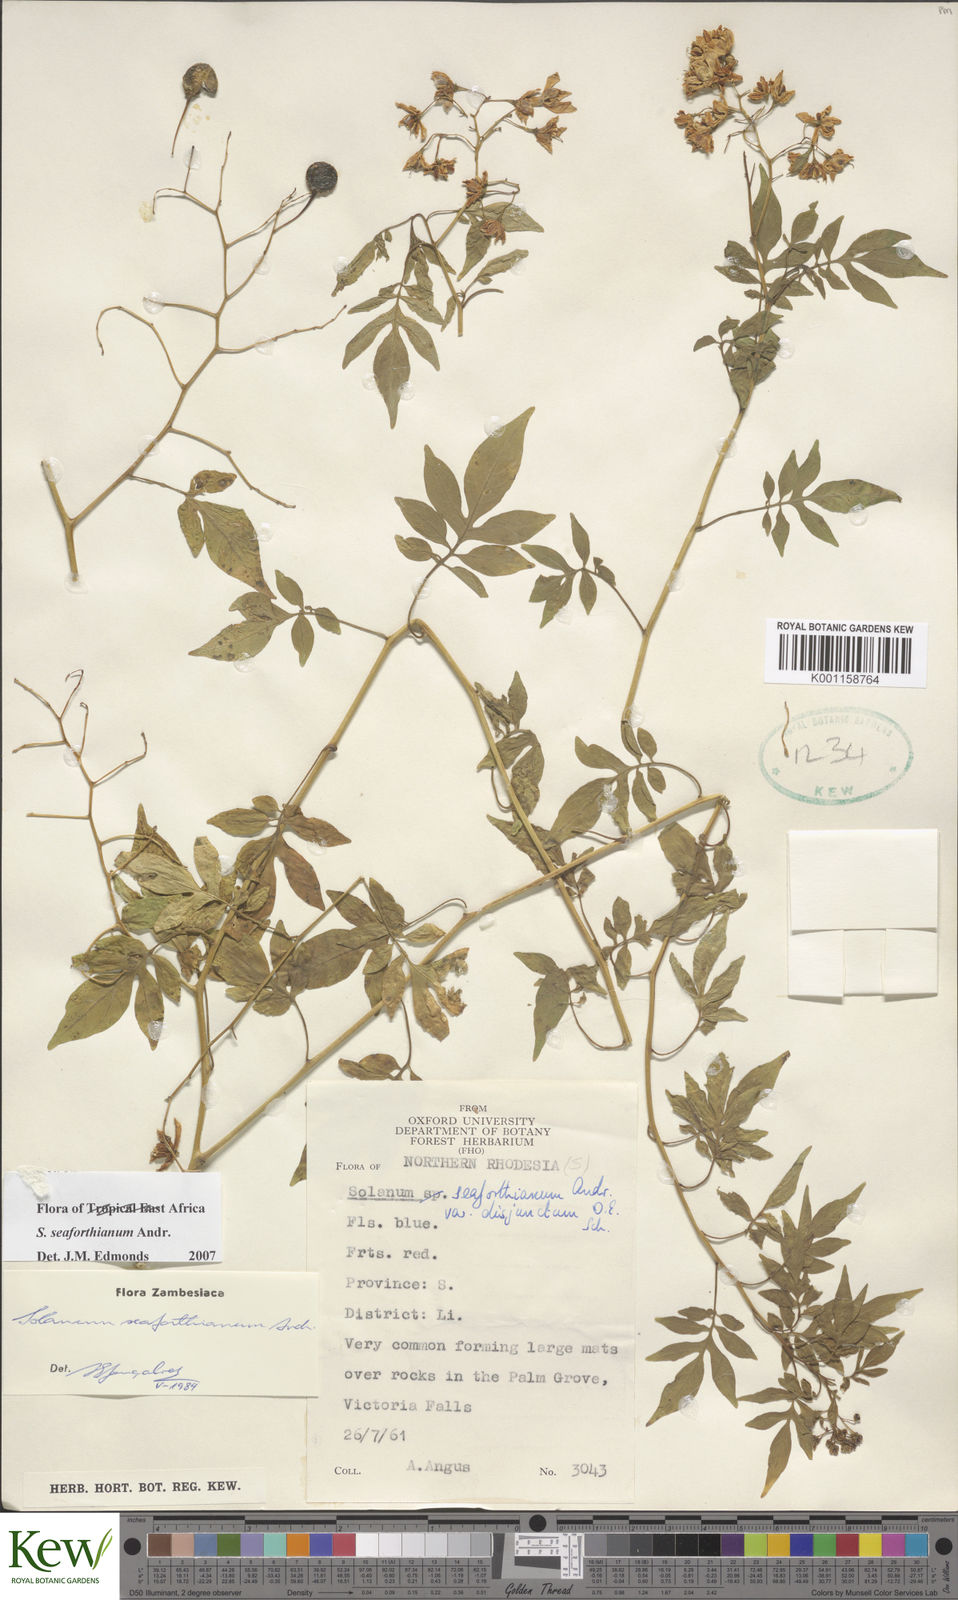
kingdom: Plantae
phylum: Tracheophyta
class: Magnoliopsida
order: Solanales
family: Solanaceae
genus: Solanum
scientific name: Solanum seaforthianum
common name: Brazilian nightshade
